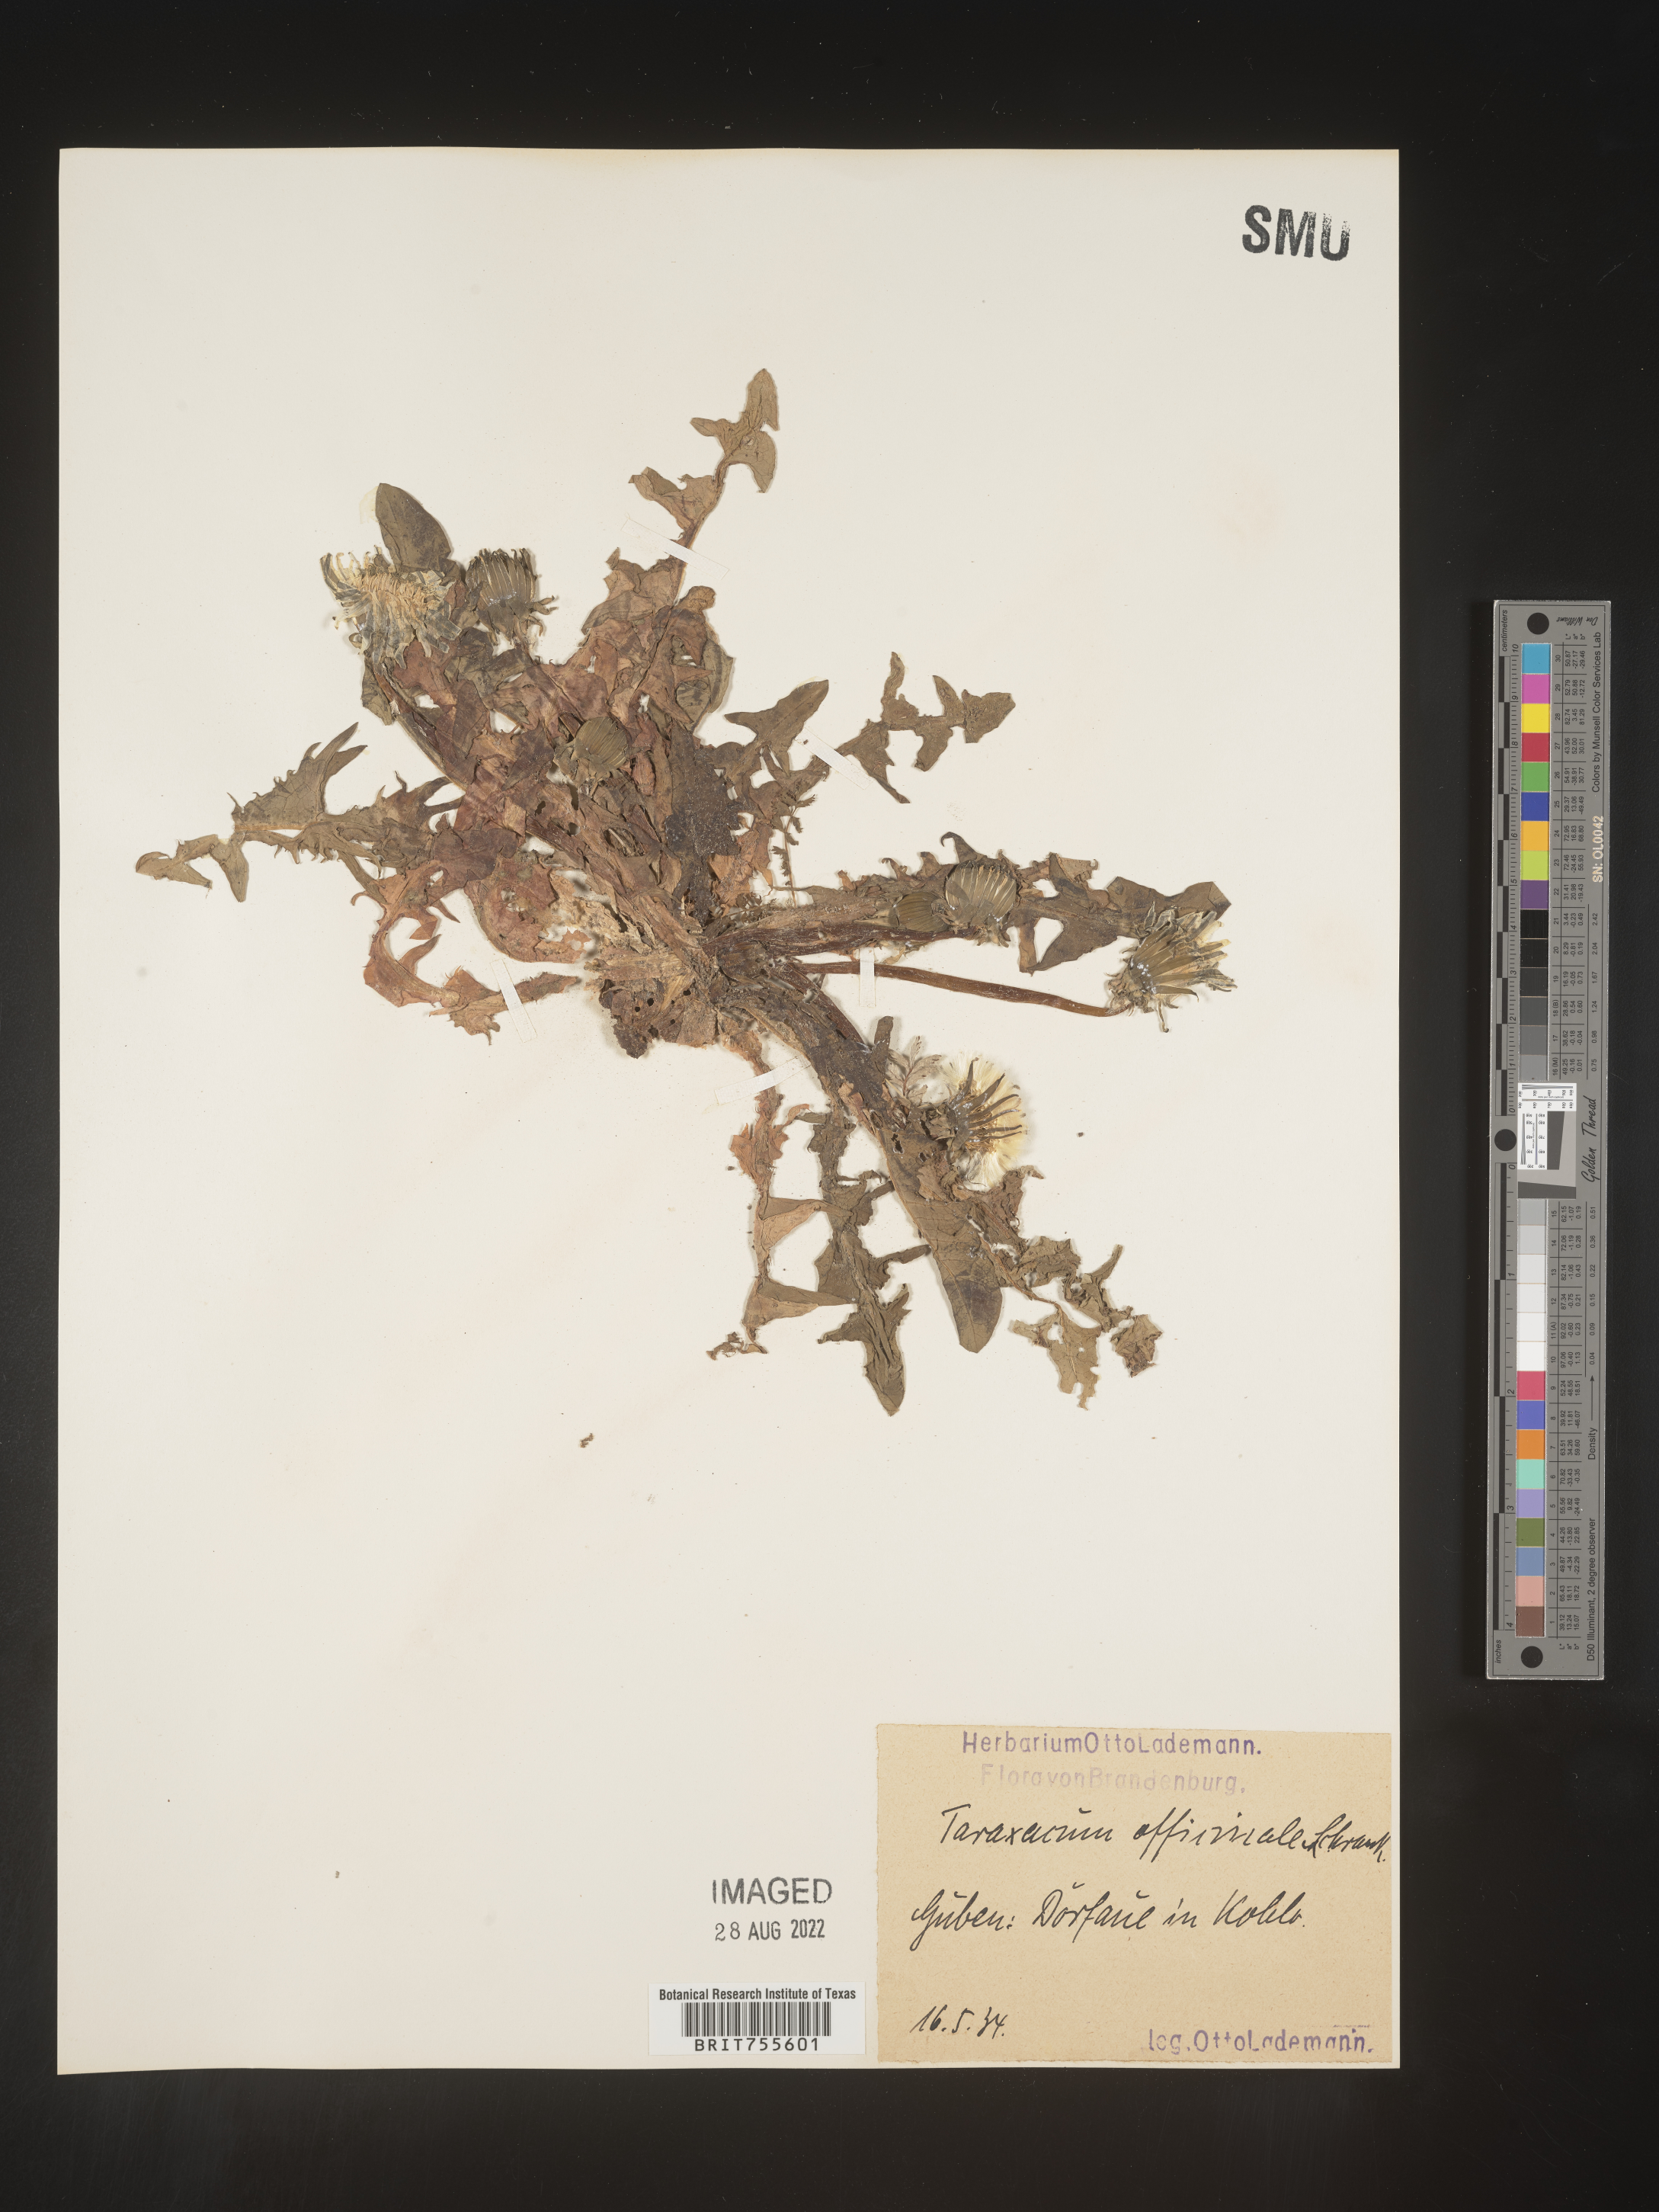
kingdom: Plantae
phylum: Tracheophyta
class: Magnoliopsida
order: Asterales
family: Asteraceae
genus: Taraxacum
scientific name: Taraxacum
